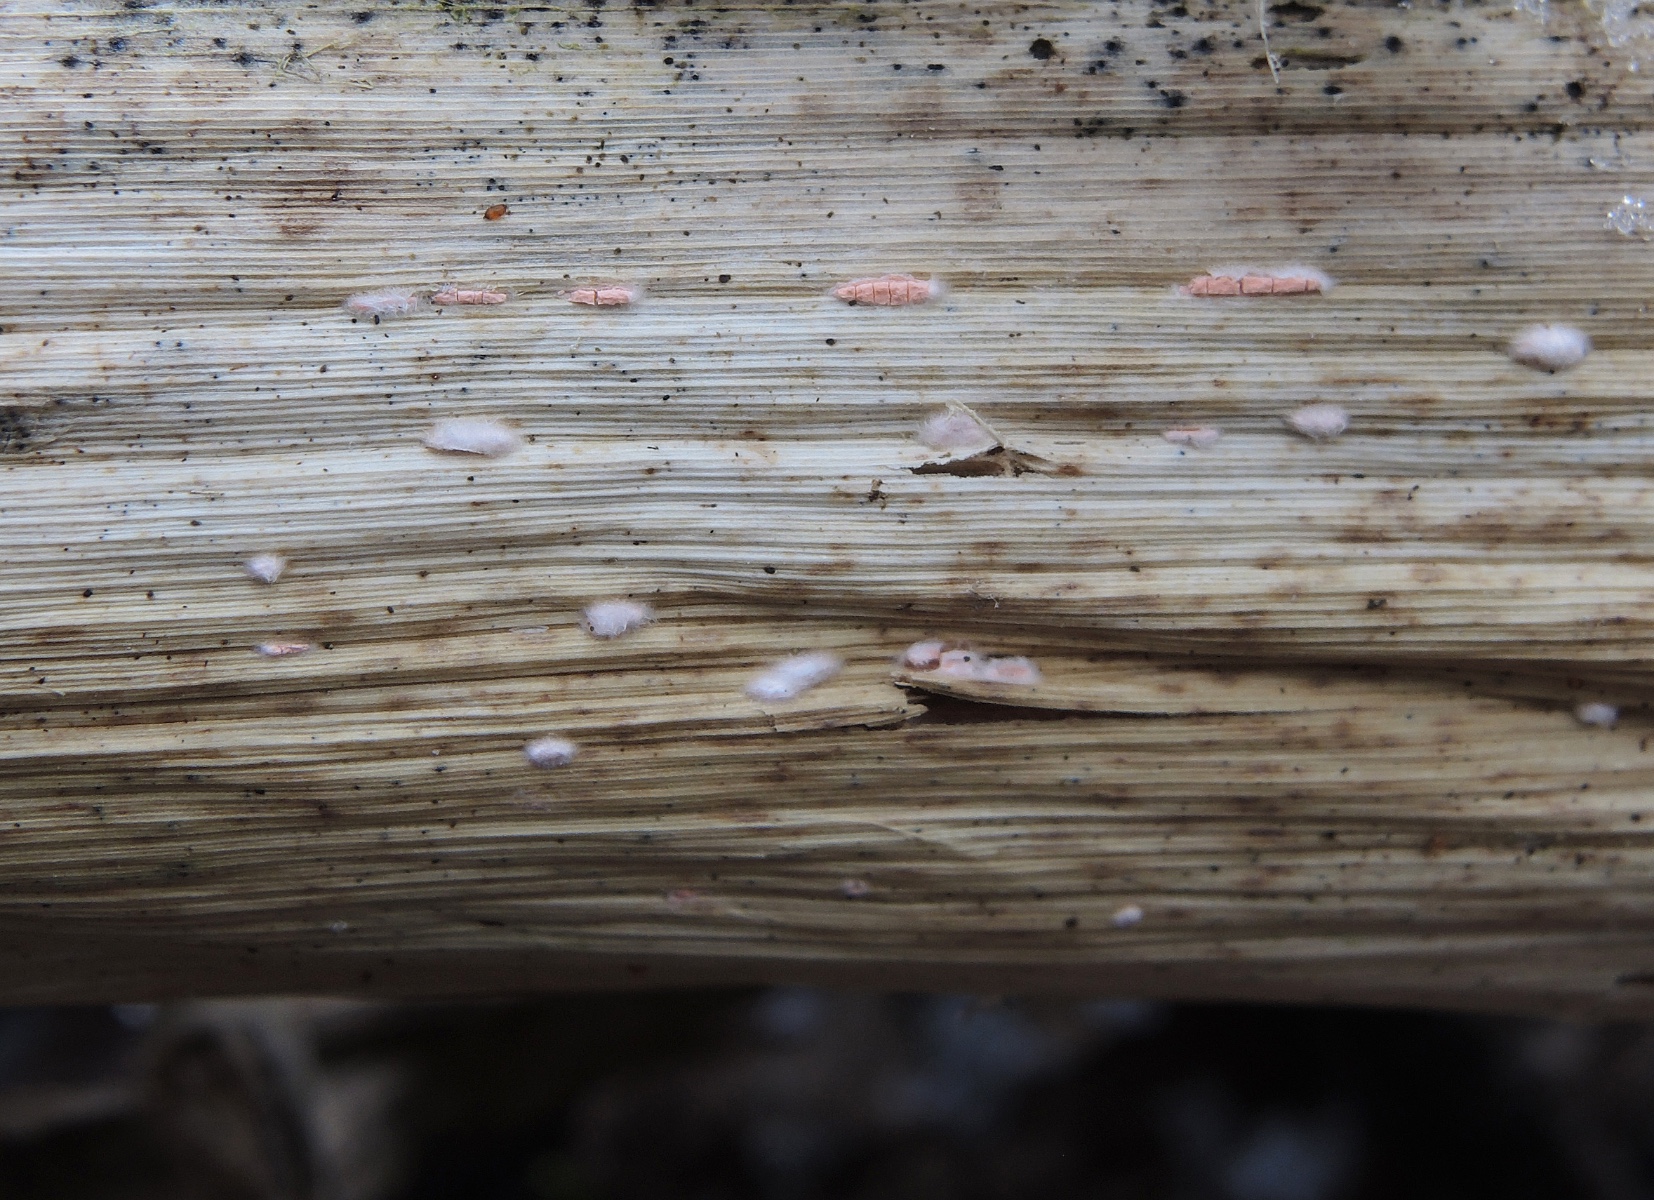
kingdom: Fungi
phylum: Ascomycota
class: Sordariomycetes
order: Hypocreales
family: Nectriaceae
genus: Volutella
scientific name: Volutella arundinis
